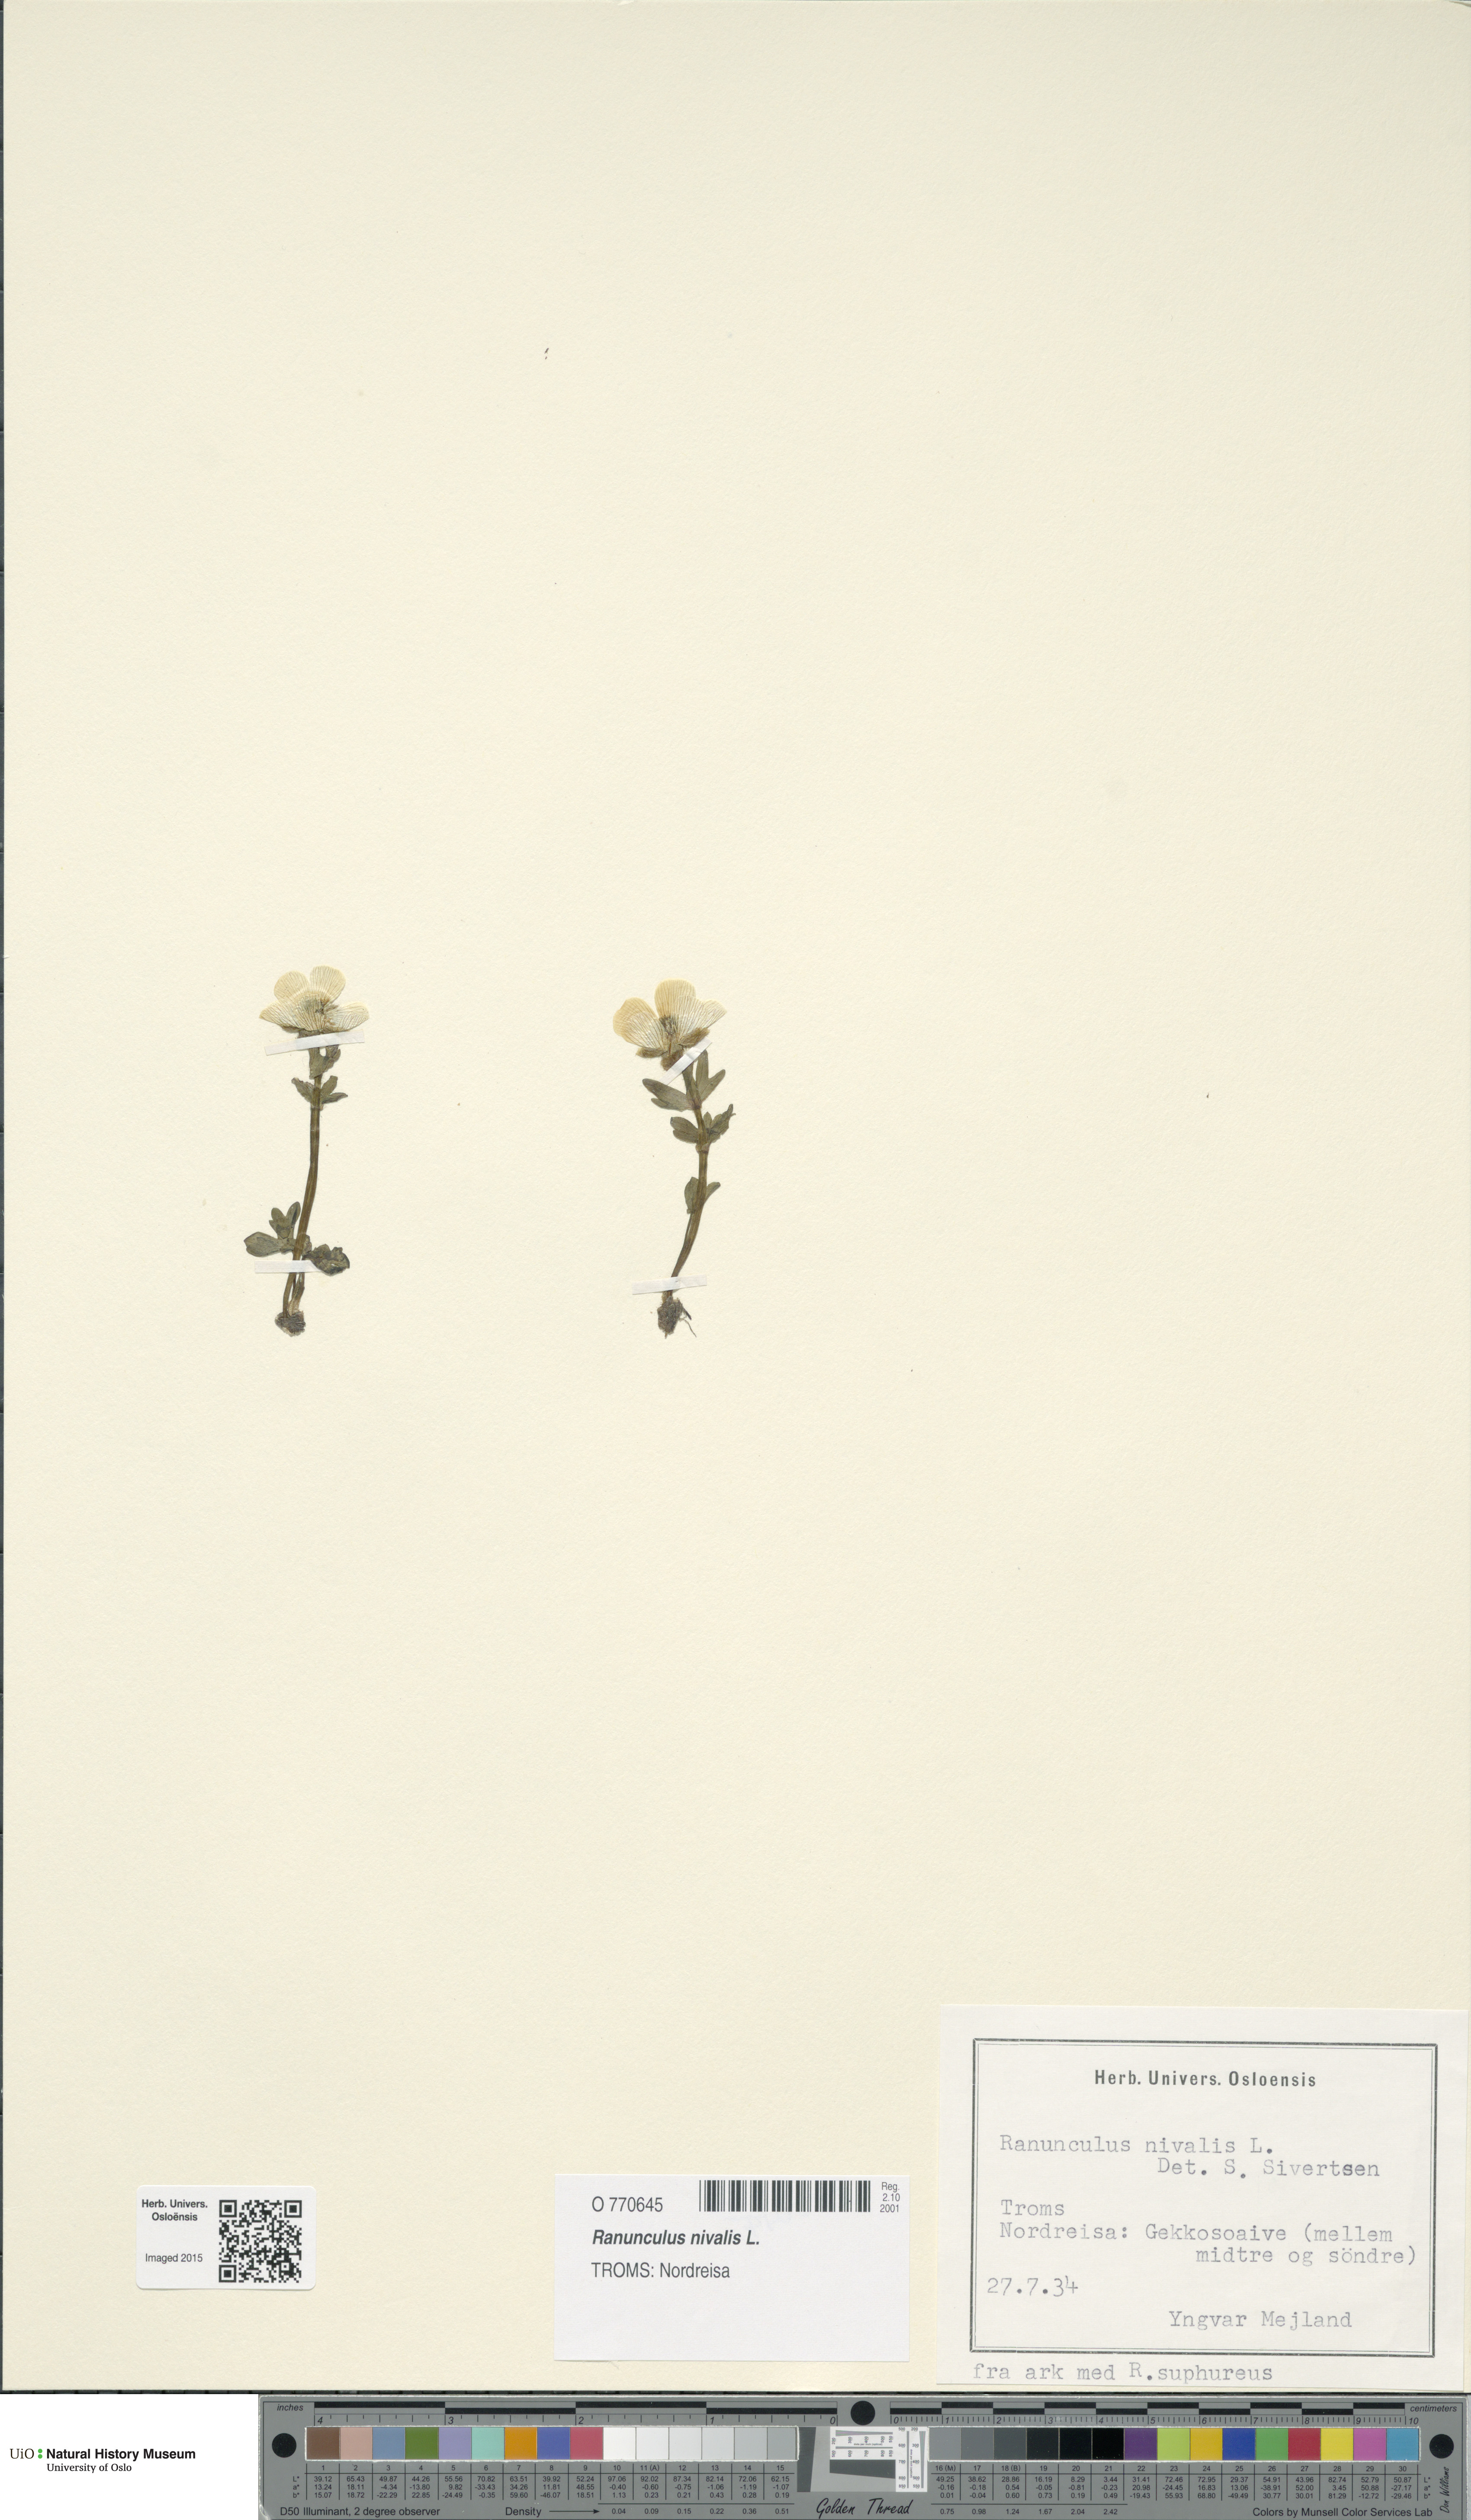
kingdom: Plantae
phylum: Tracheophyta
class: Magnoliopsida
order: Ranunculales
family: Ranunculaceae
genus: Ranunculus
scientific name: Ranunculus nivalis
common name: Snow buttercup
